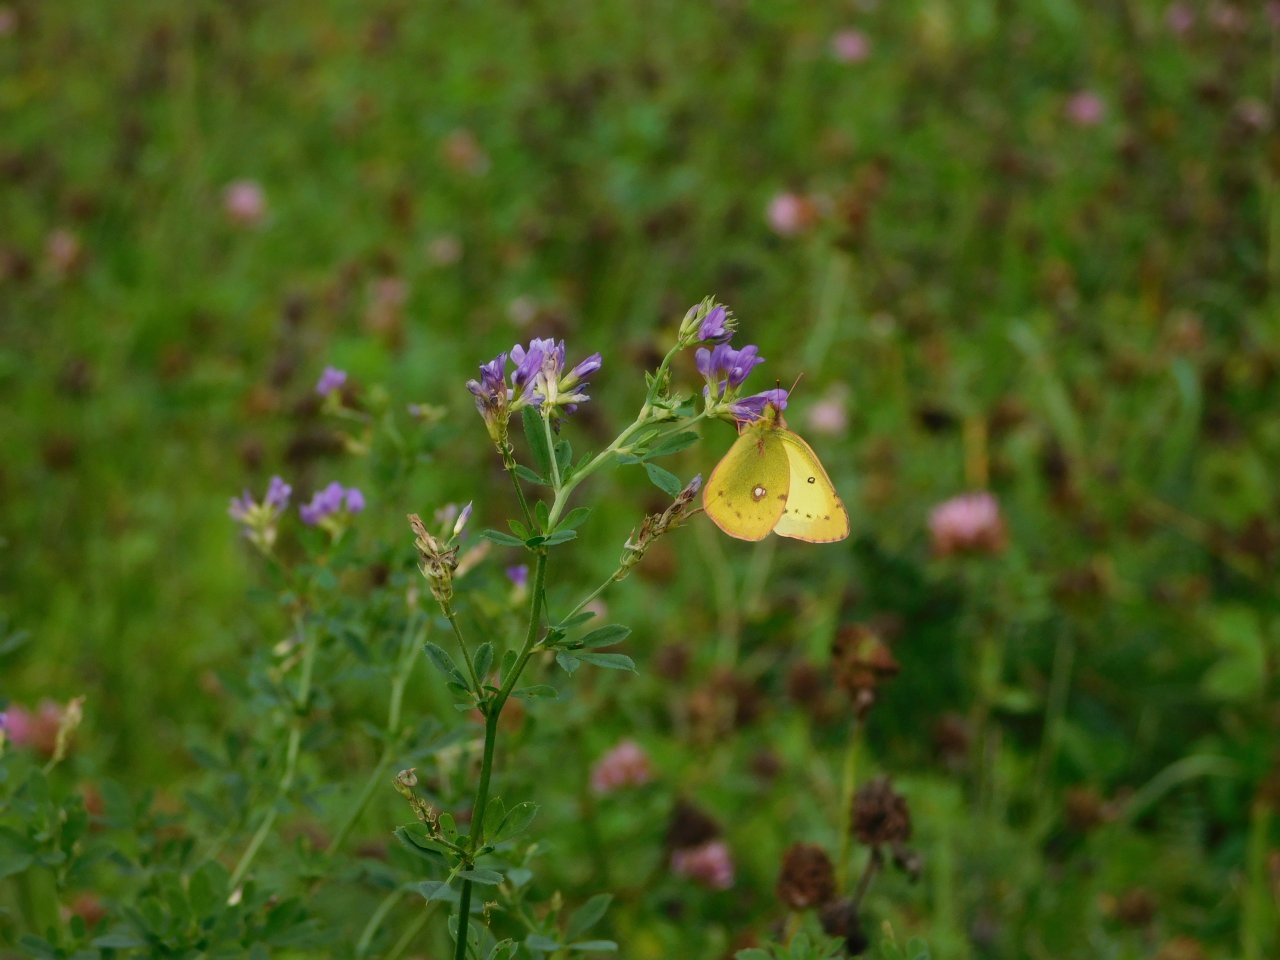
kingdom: Animalia
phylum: Arthropoda
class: Insecta
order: Lepidoptera
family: Pieridae
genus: Colias
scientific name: Colias philodice
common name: Clouded Sulphur
